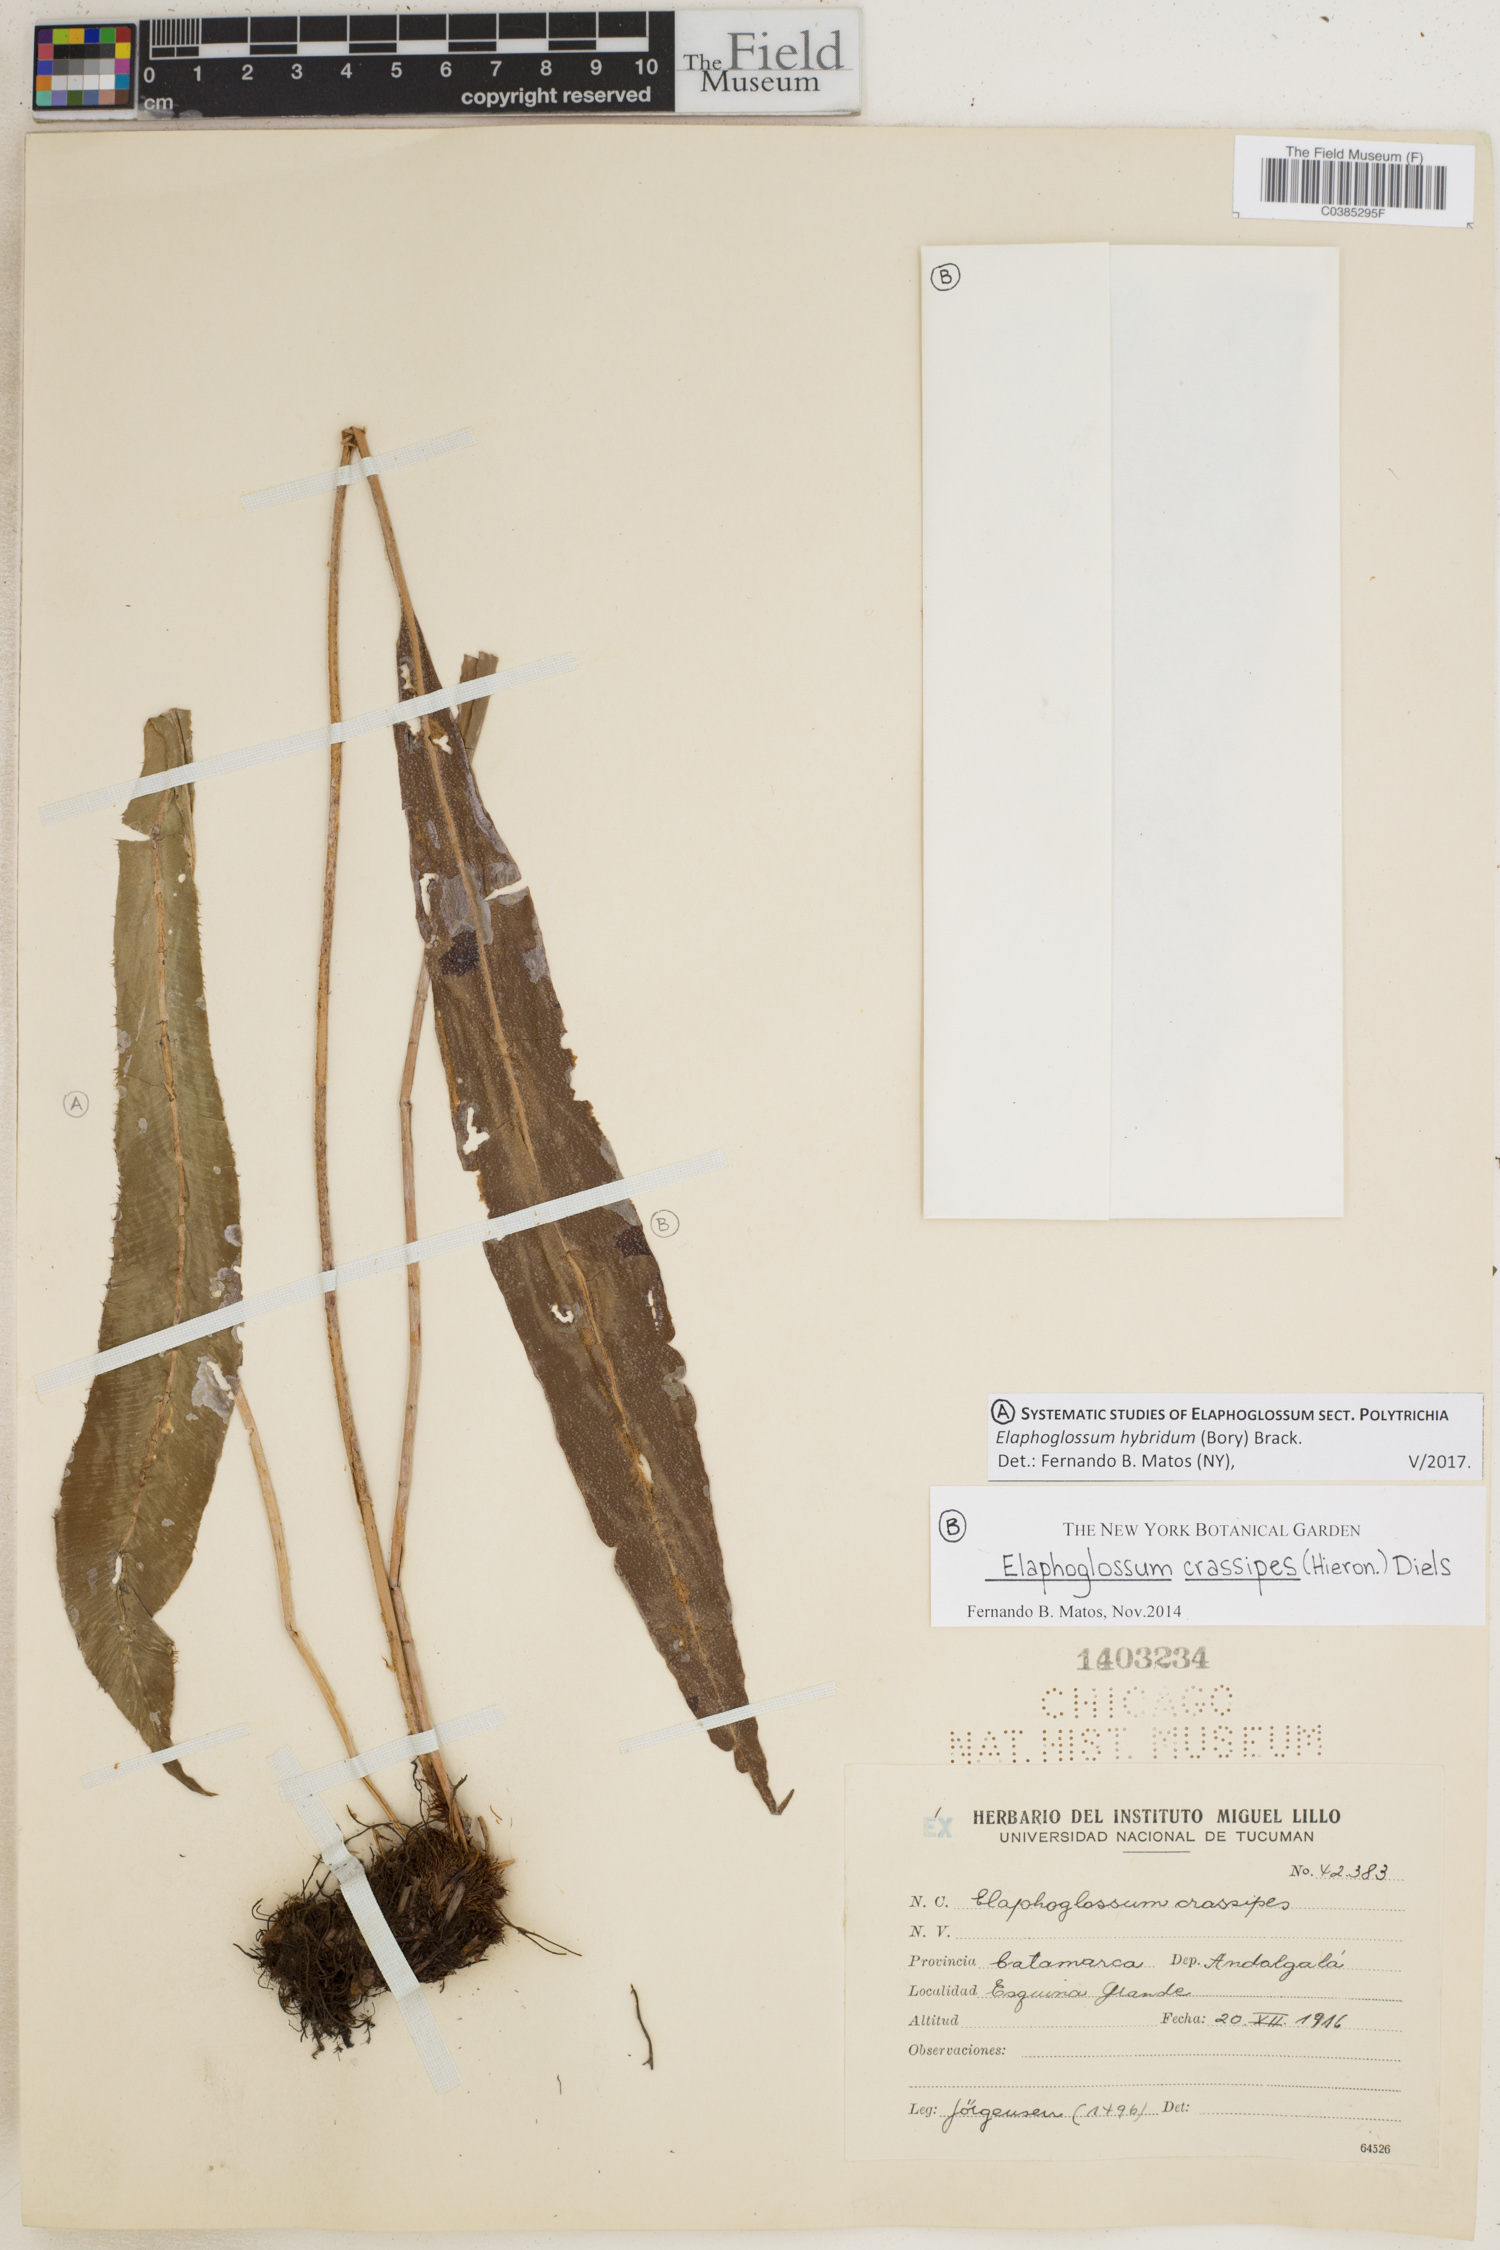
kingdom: Plantae
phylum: Tracheophyta
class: Polypodiopsida
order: Polypodiales
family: Dryopteridaceae
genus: Elaphoglossum
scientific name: Elaphoglossum hybridum
